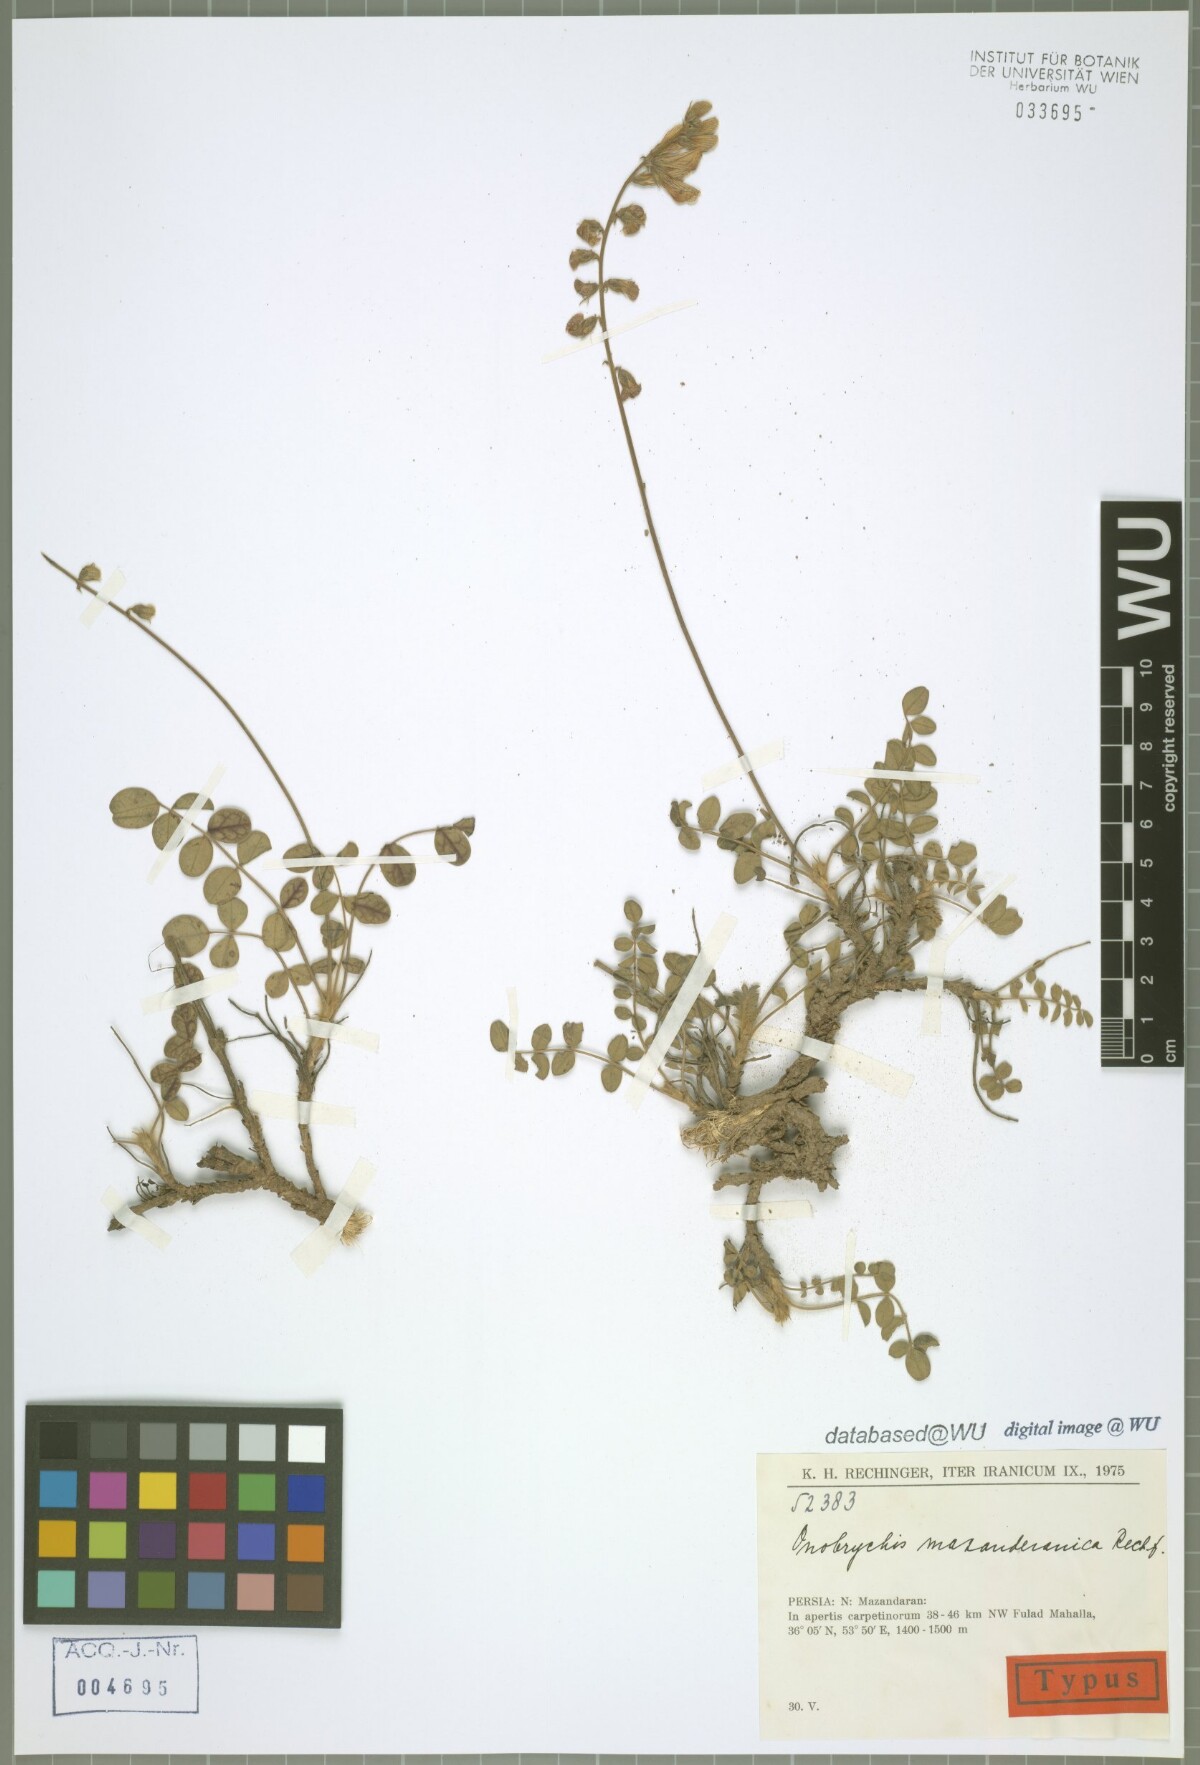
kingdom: Plantae
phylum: Tracheophyta
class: Magnoliopsida
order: Fabales
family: Fabaceae
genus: Onobrychis
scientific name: Onobrychis mazanderanica
